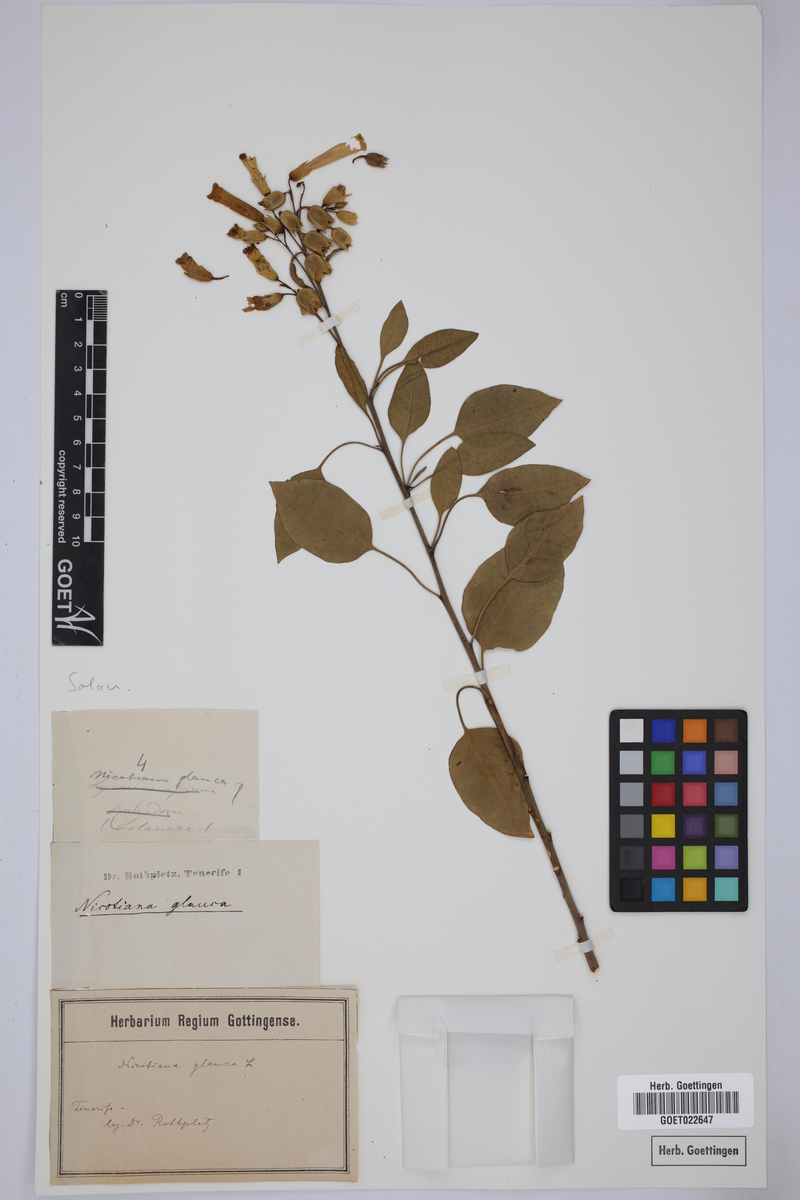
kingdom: Plantae
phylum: Tracheophyta
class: Magnoliopsida
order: Solanales
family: Solanaceae
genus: Nicotiana
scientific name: Nicotiana glauca
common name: Tree tobacco
